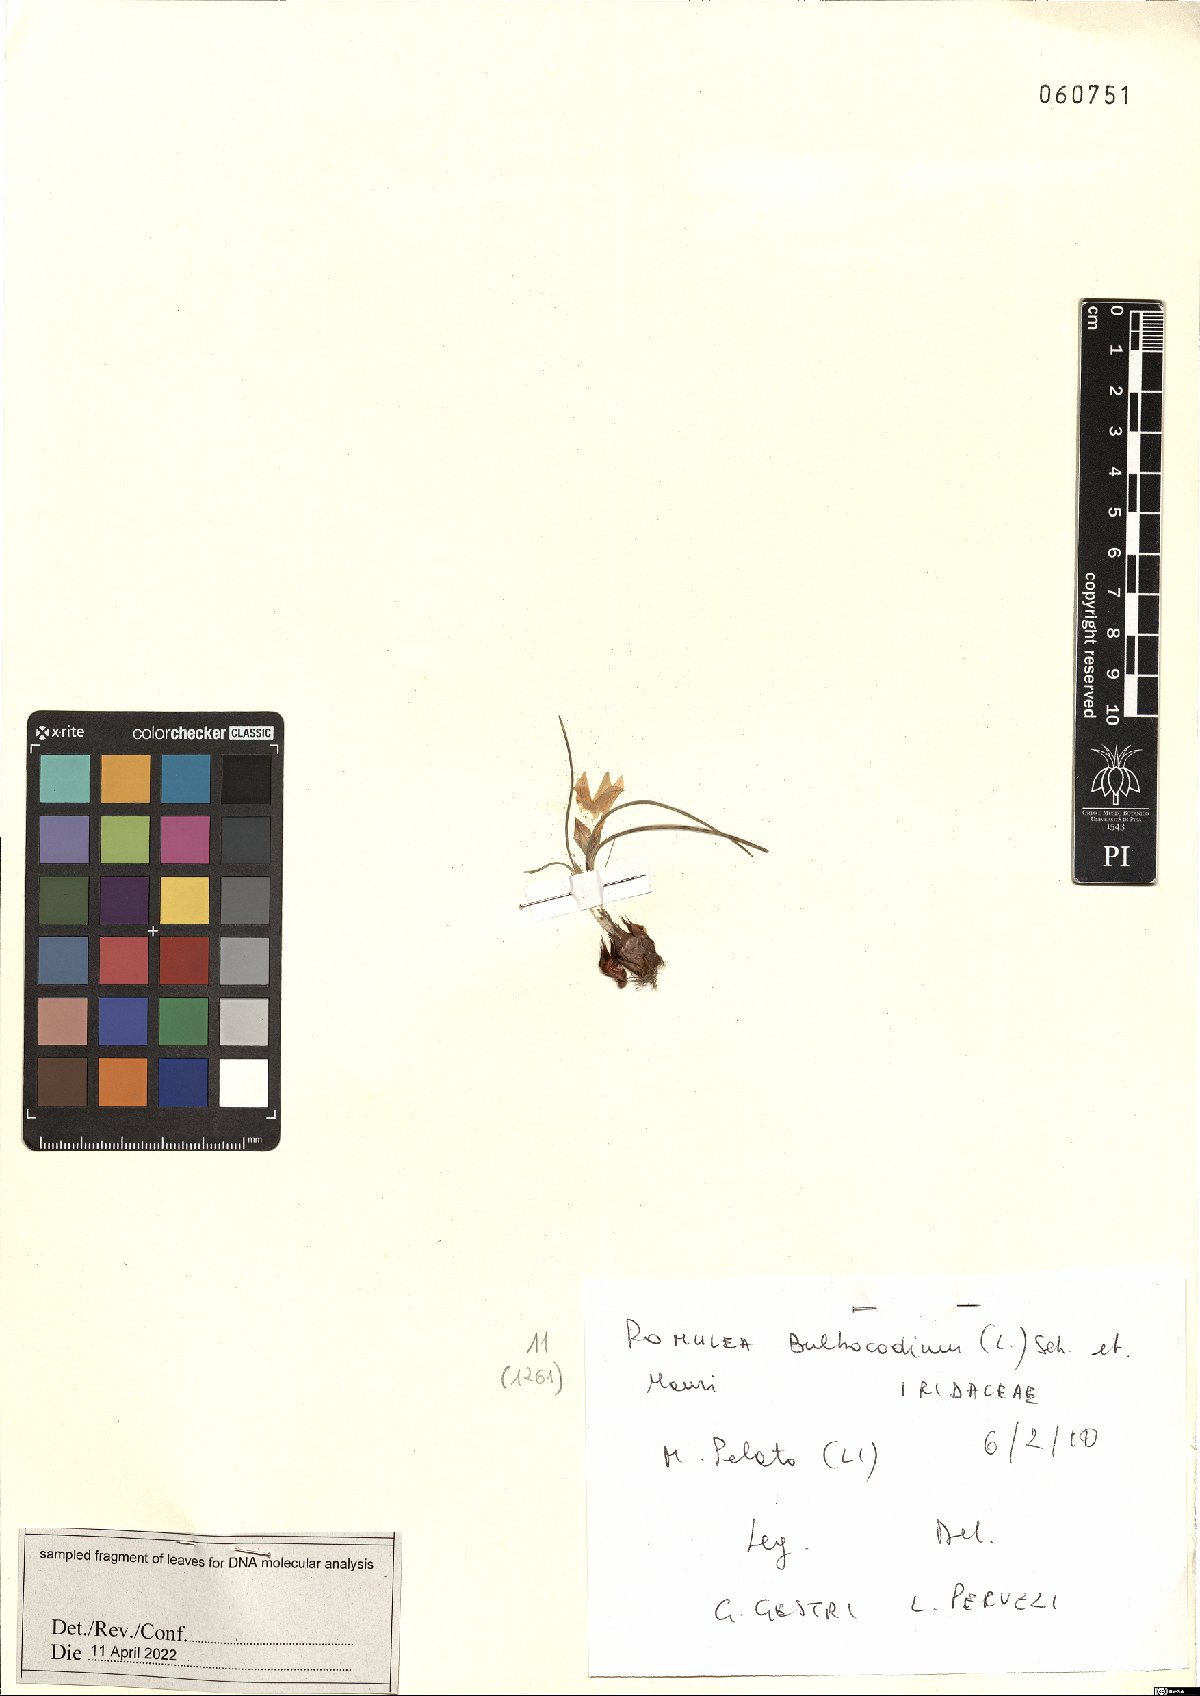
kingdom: Plantae
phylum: Tracheophyta
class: Liliopsida
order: Asparagales
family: Iridaceae
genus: Romulea
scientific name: Romulea bulbocodium
